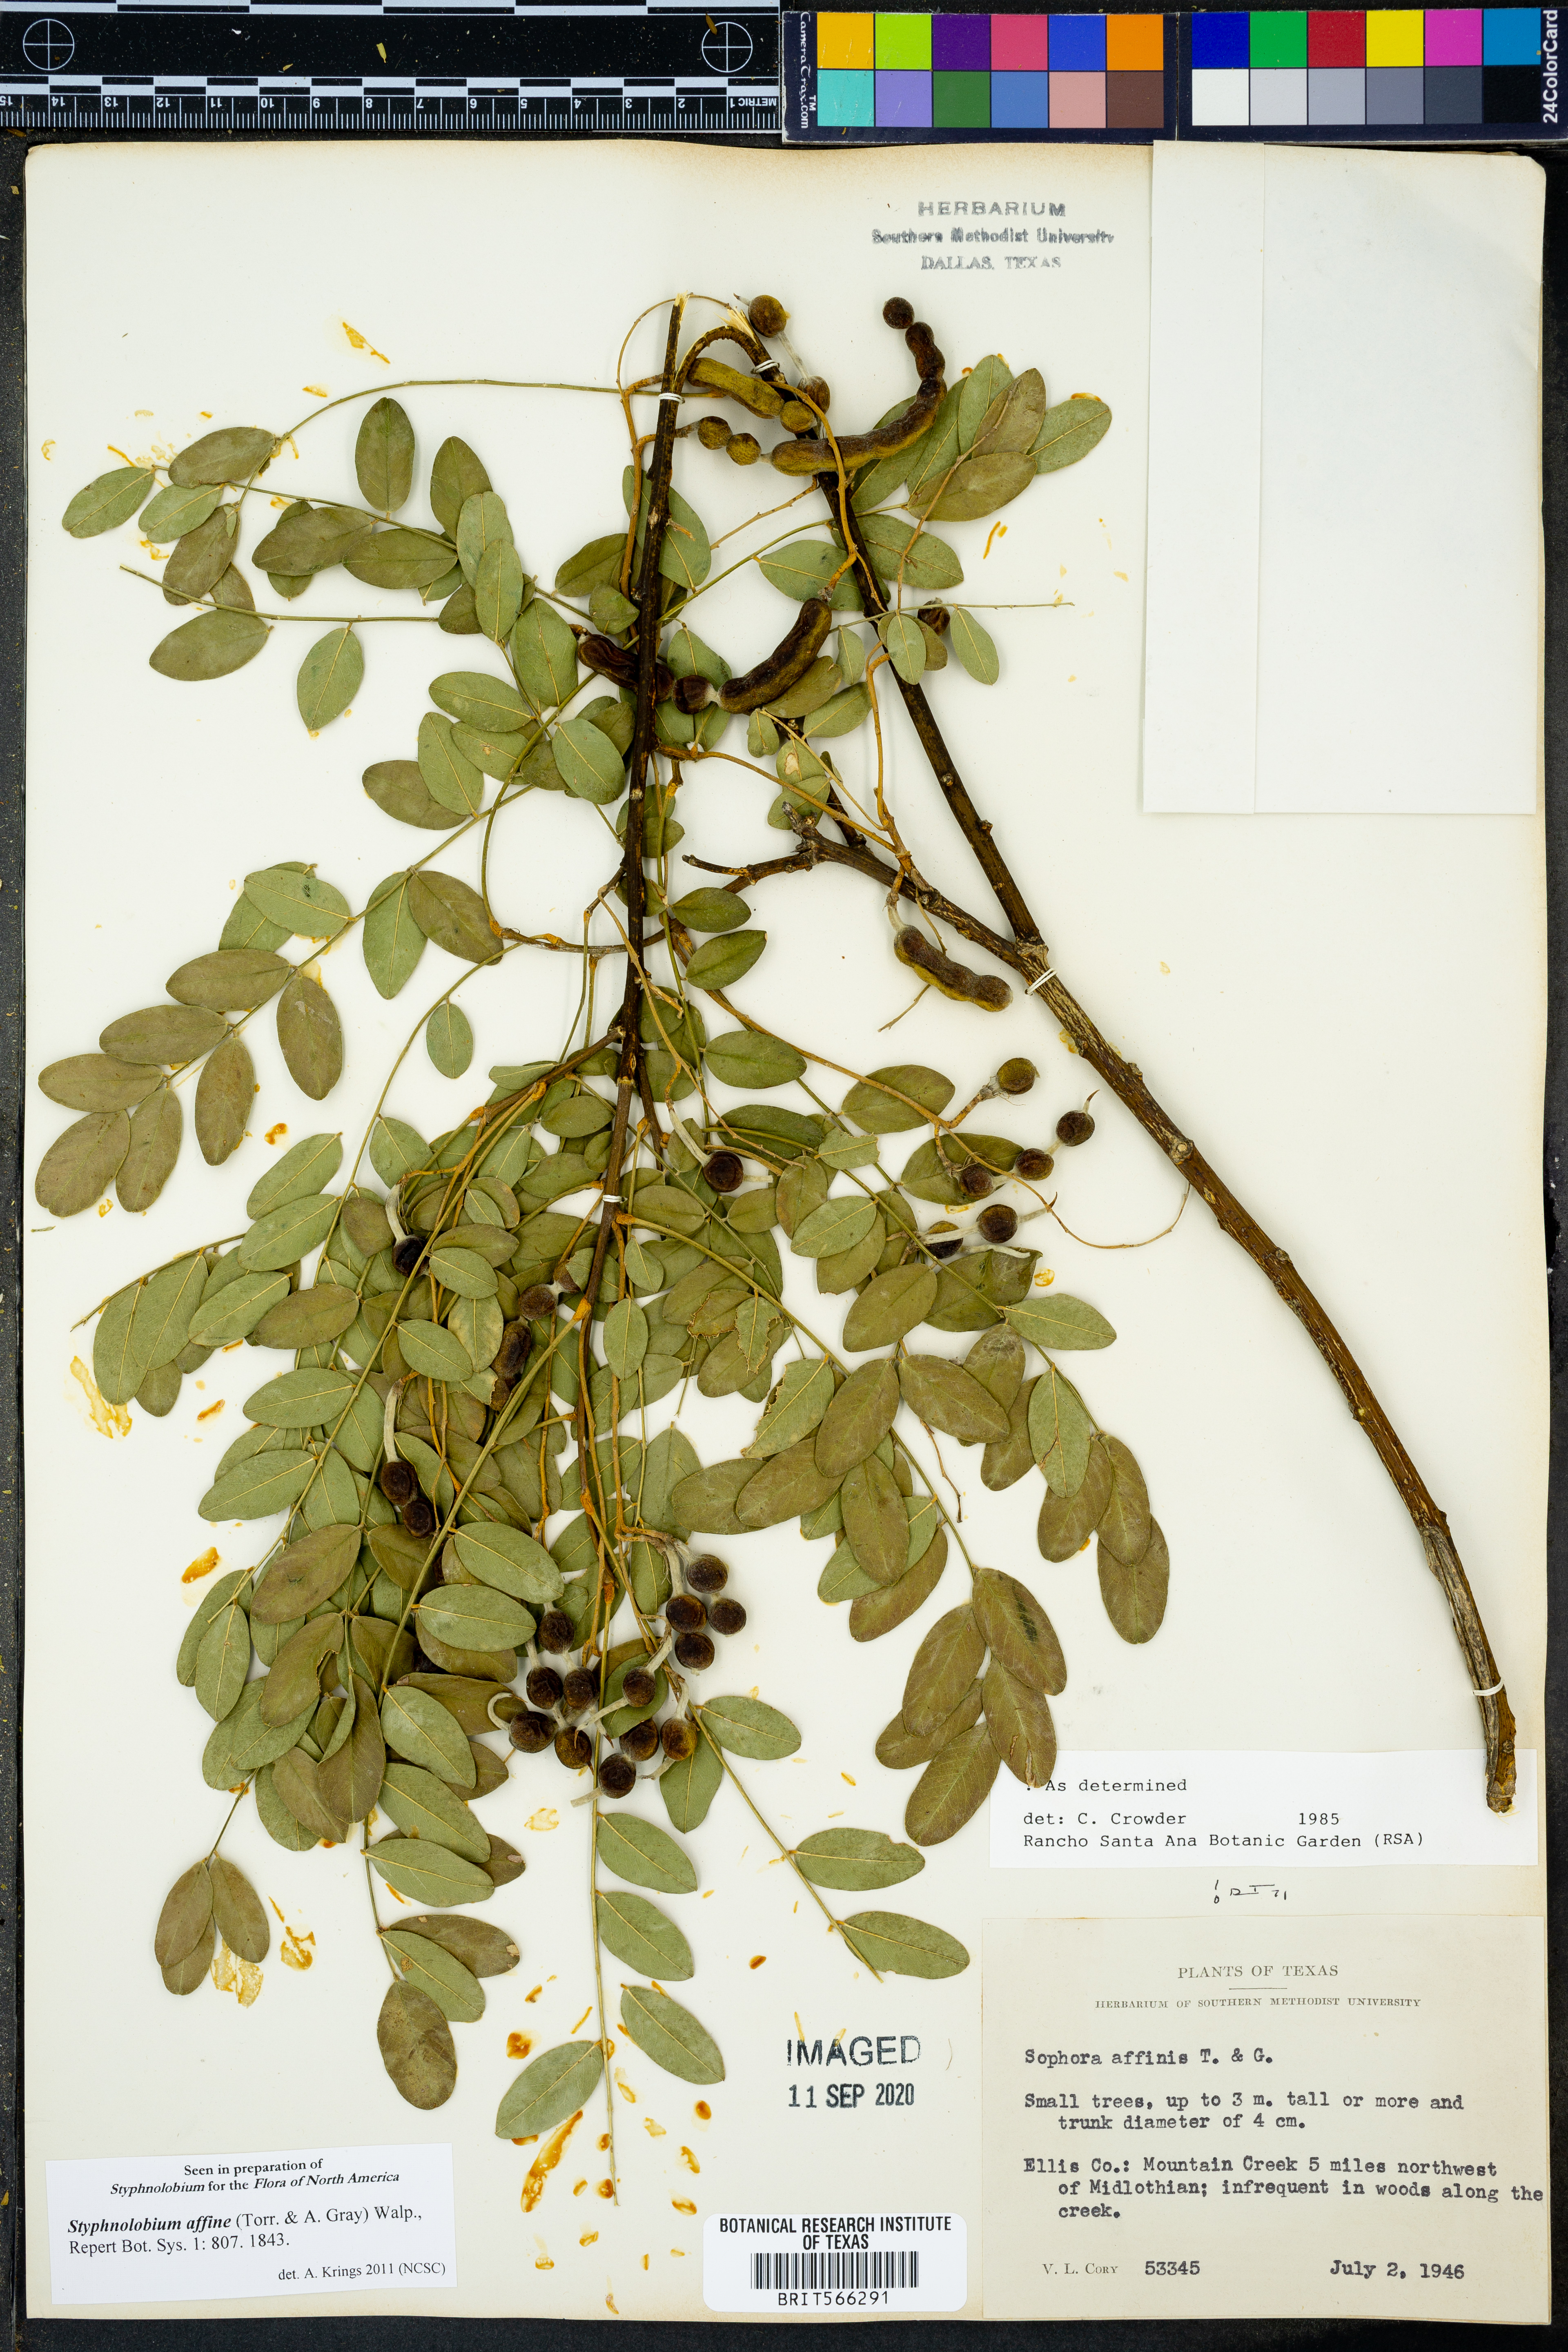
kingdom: Plantae
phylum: Tracheophyta
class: Magnoliopsida
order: Fabales
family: Fabaceae
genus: Styphnolobium
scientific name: Styphnolobium affine
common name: Texas sophora
